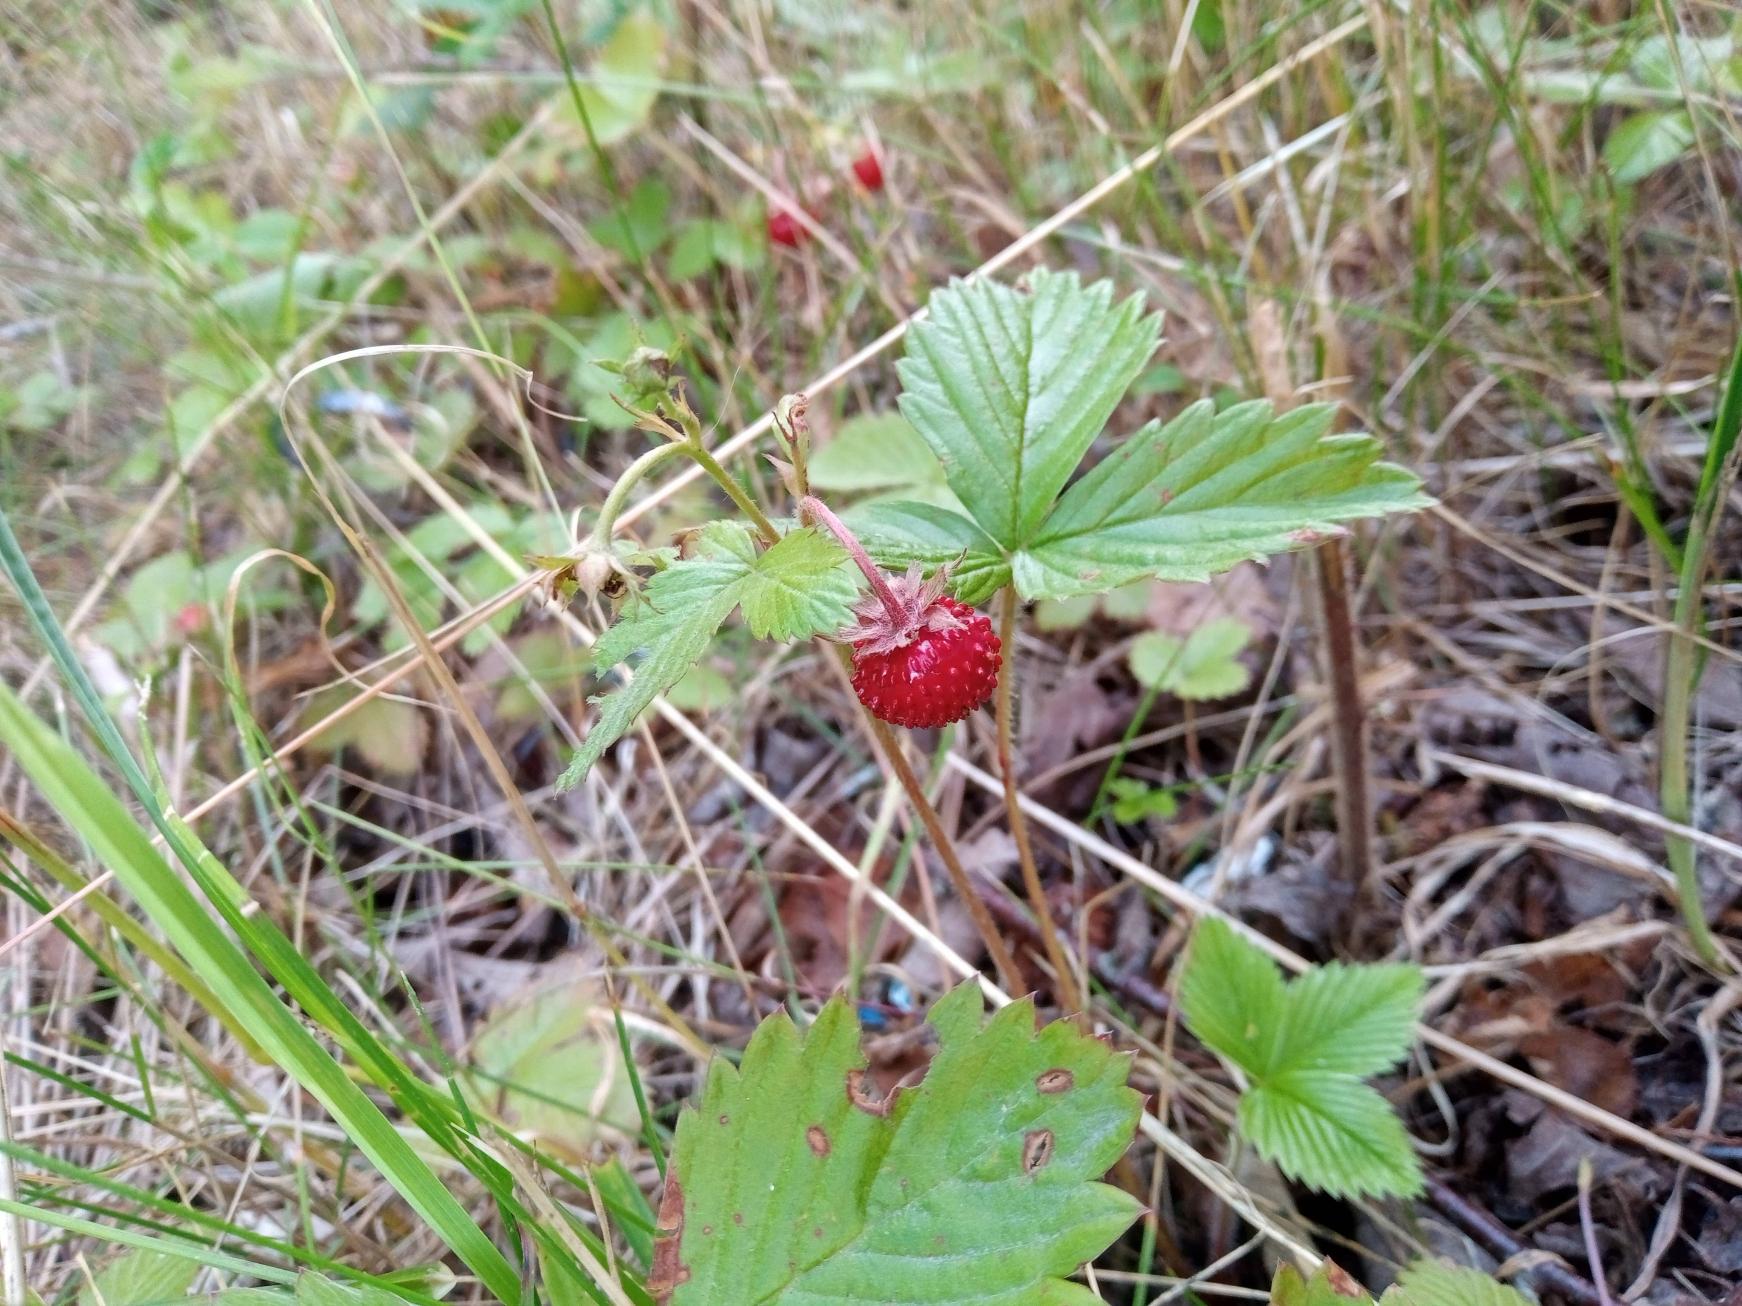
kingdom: Plantae
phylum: Tracheophyta
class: Magnoliopsida
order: Rosales
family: Rosaceae
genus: Fragaria
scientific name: Fragaria vesca
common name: Skov-jordbær
